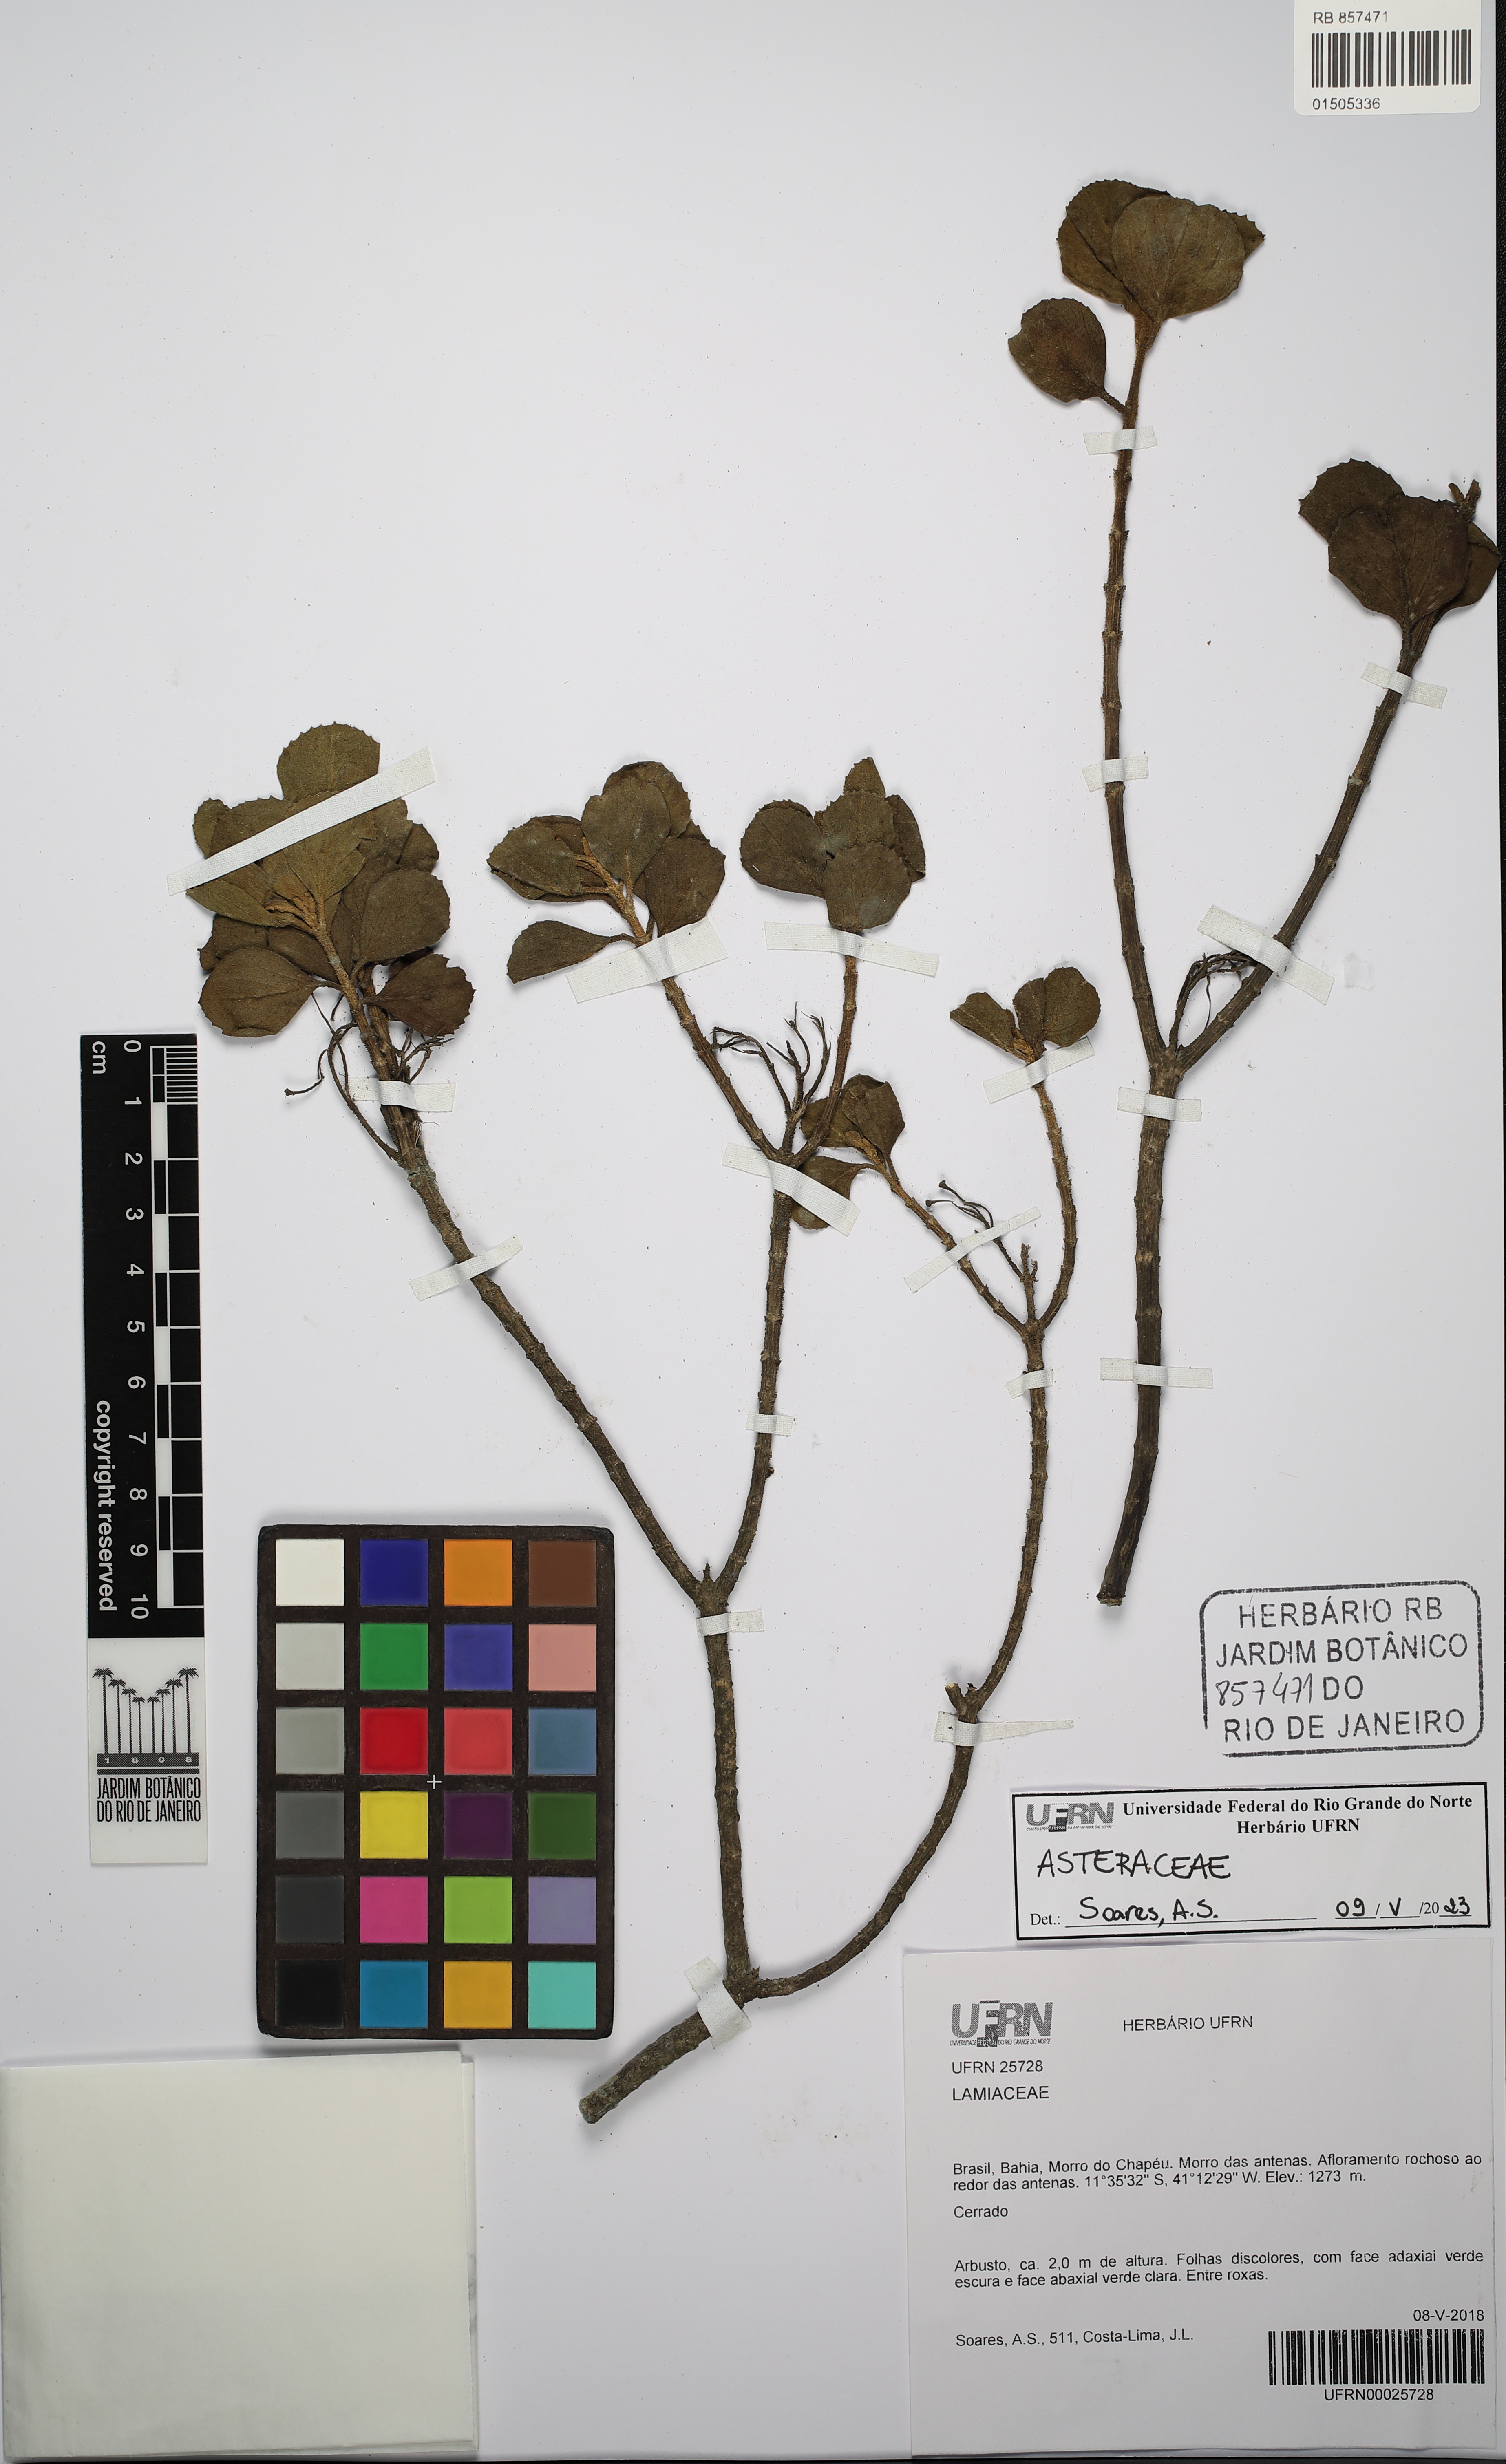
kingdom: Plantae
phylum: Tracheophyta
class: Magnoliopsida
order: Asterales
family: Asteraceae
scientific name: Asteraceae
